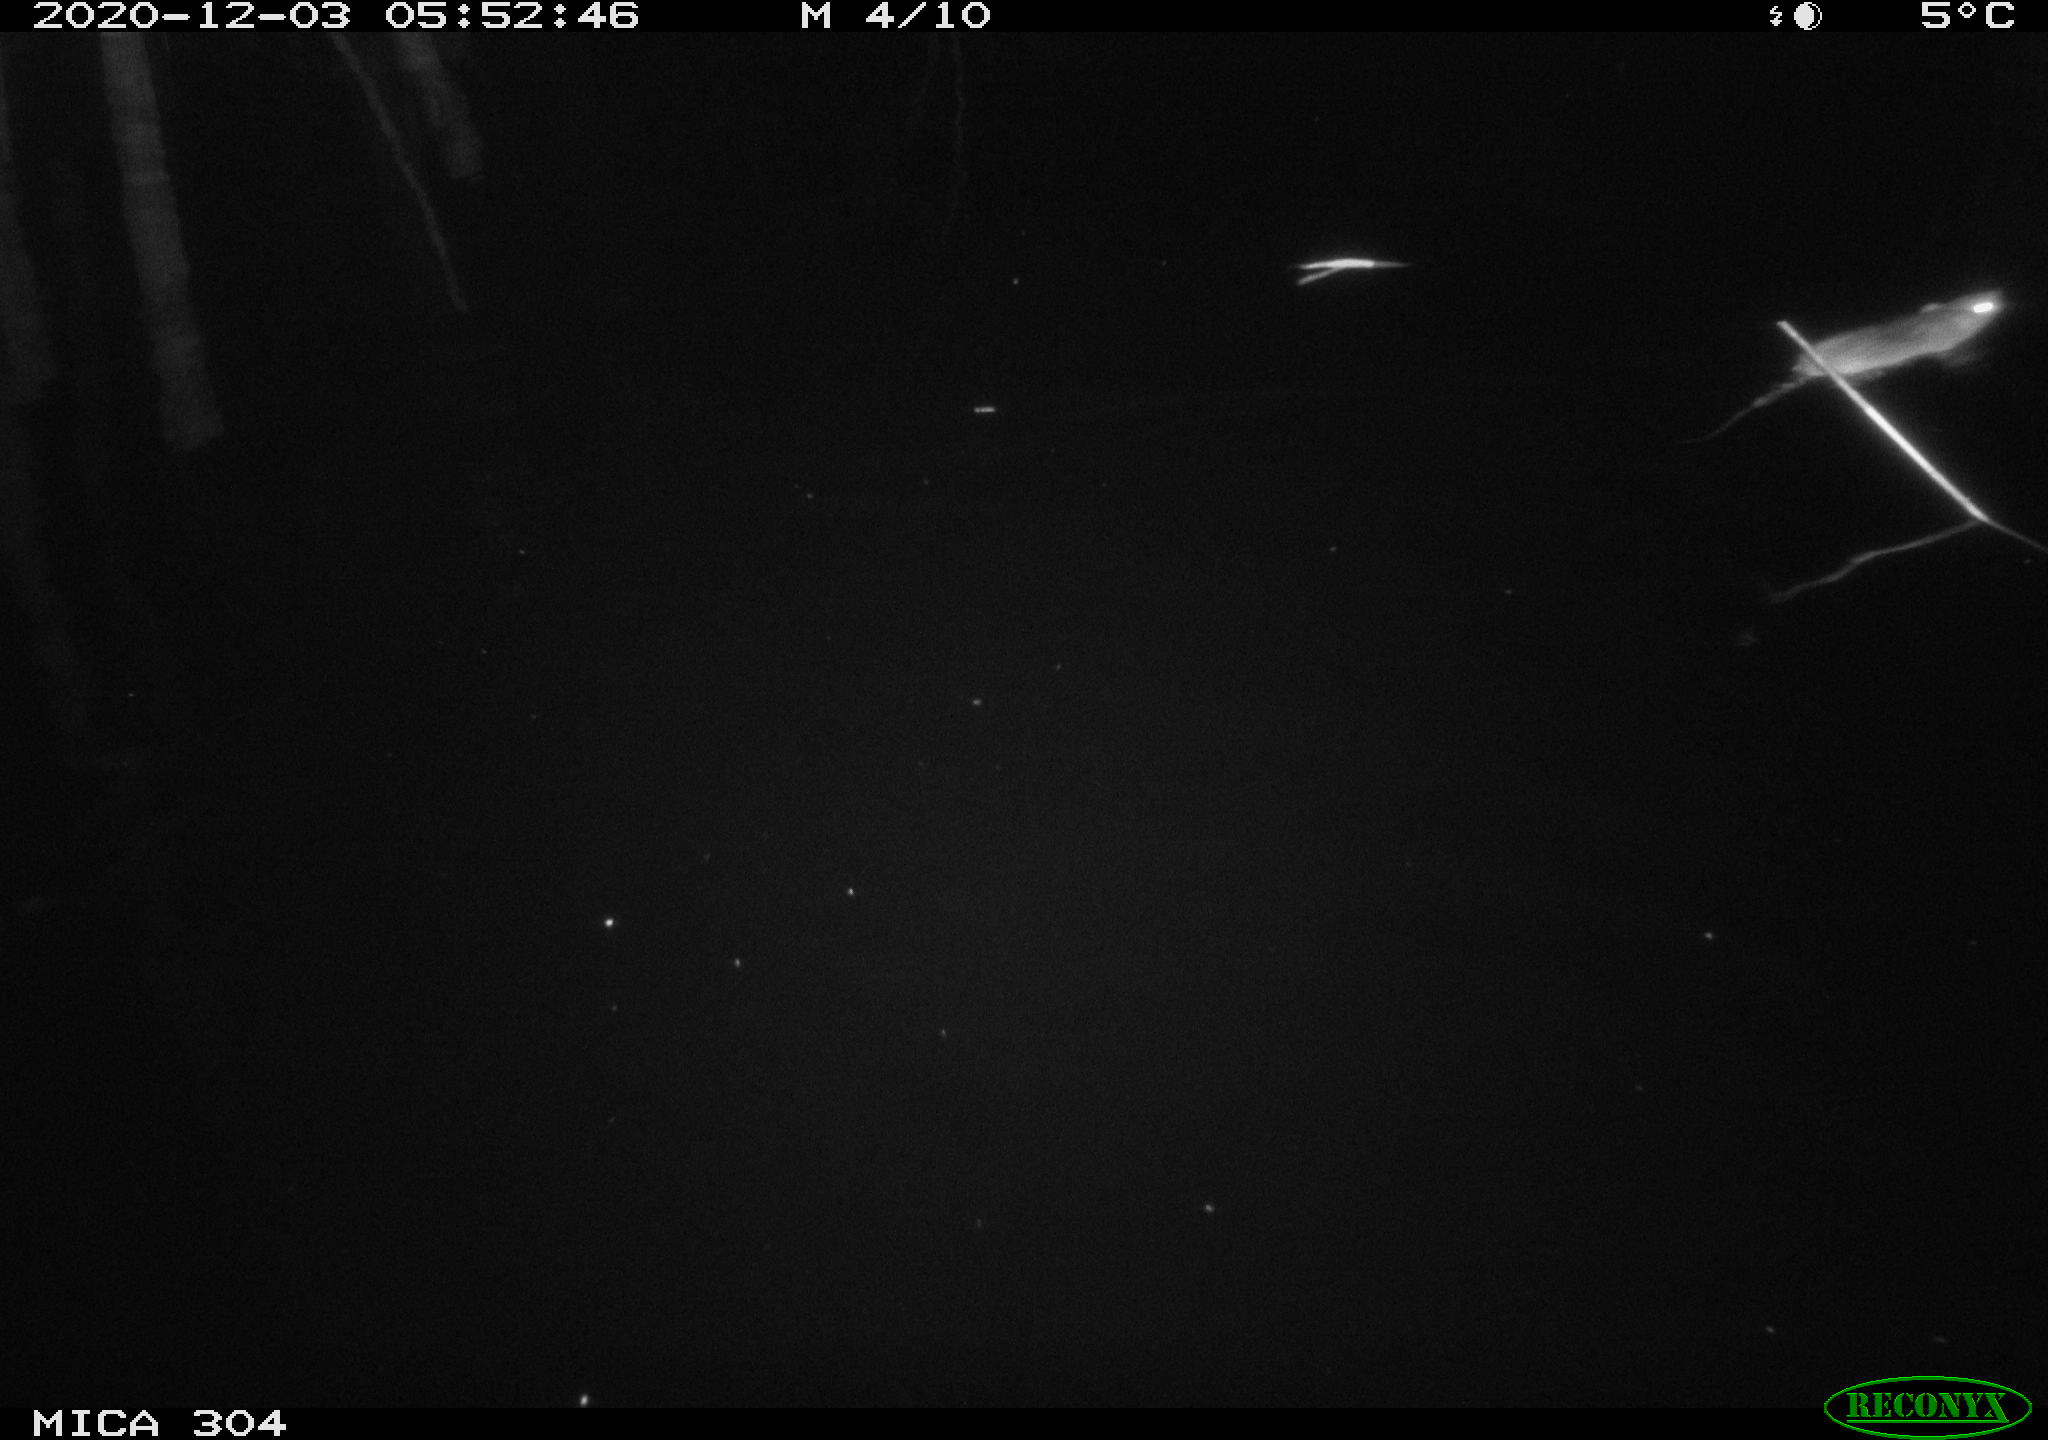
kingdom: Animalia
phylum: Chordata
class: Mammalia
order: Rodentia
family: Muridae
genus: Rattus
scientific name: Rattus norvegicus
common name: Brown rat
